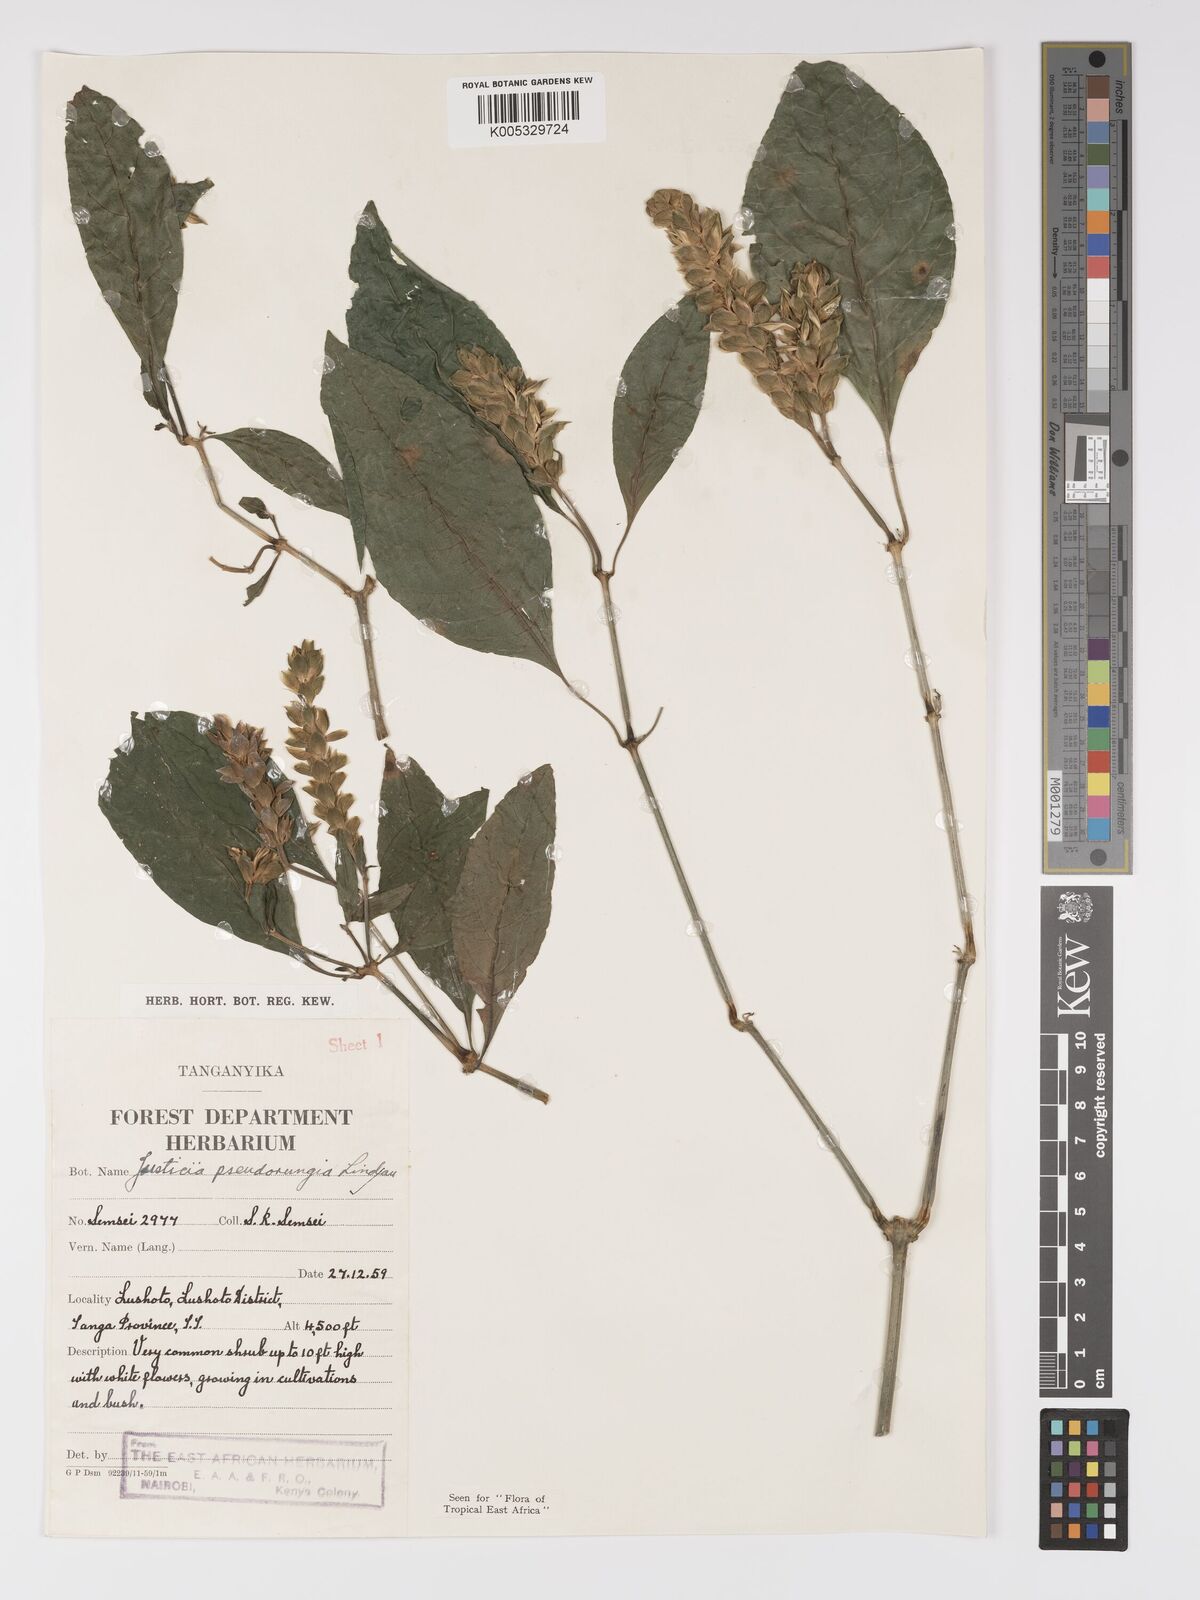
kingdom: Plantae
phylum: Tracheophyta
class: Magnoliopsida
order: Lamiales
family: Acanthaceae
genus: Justicia
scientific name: Justicia pseudorungia
